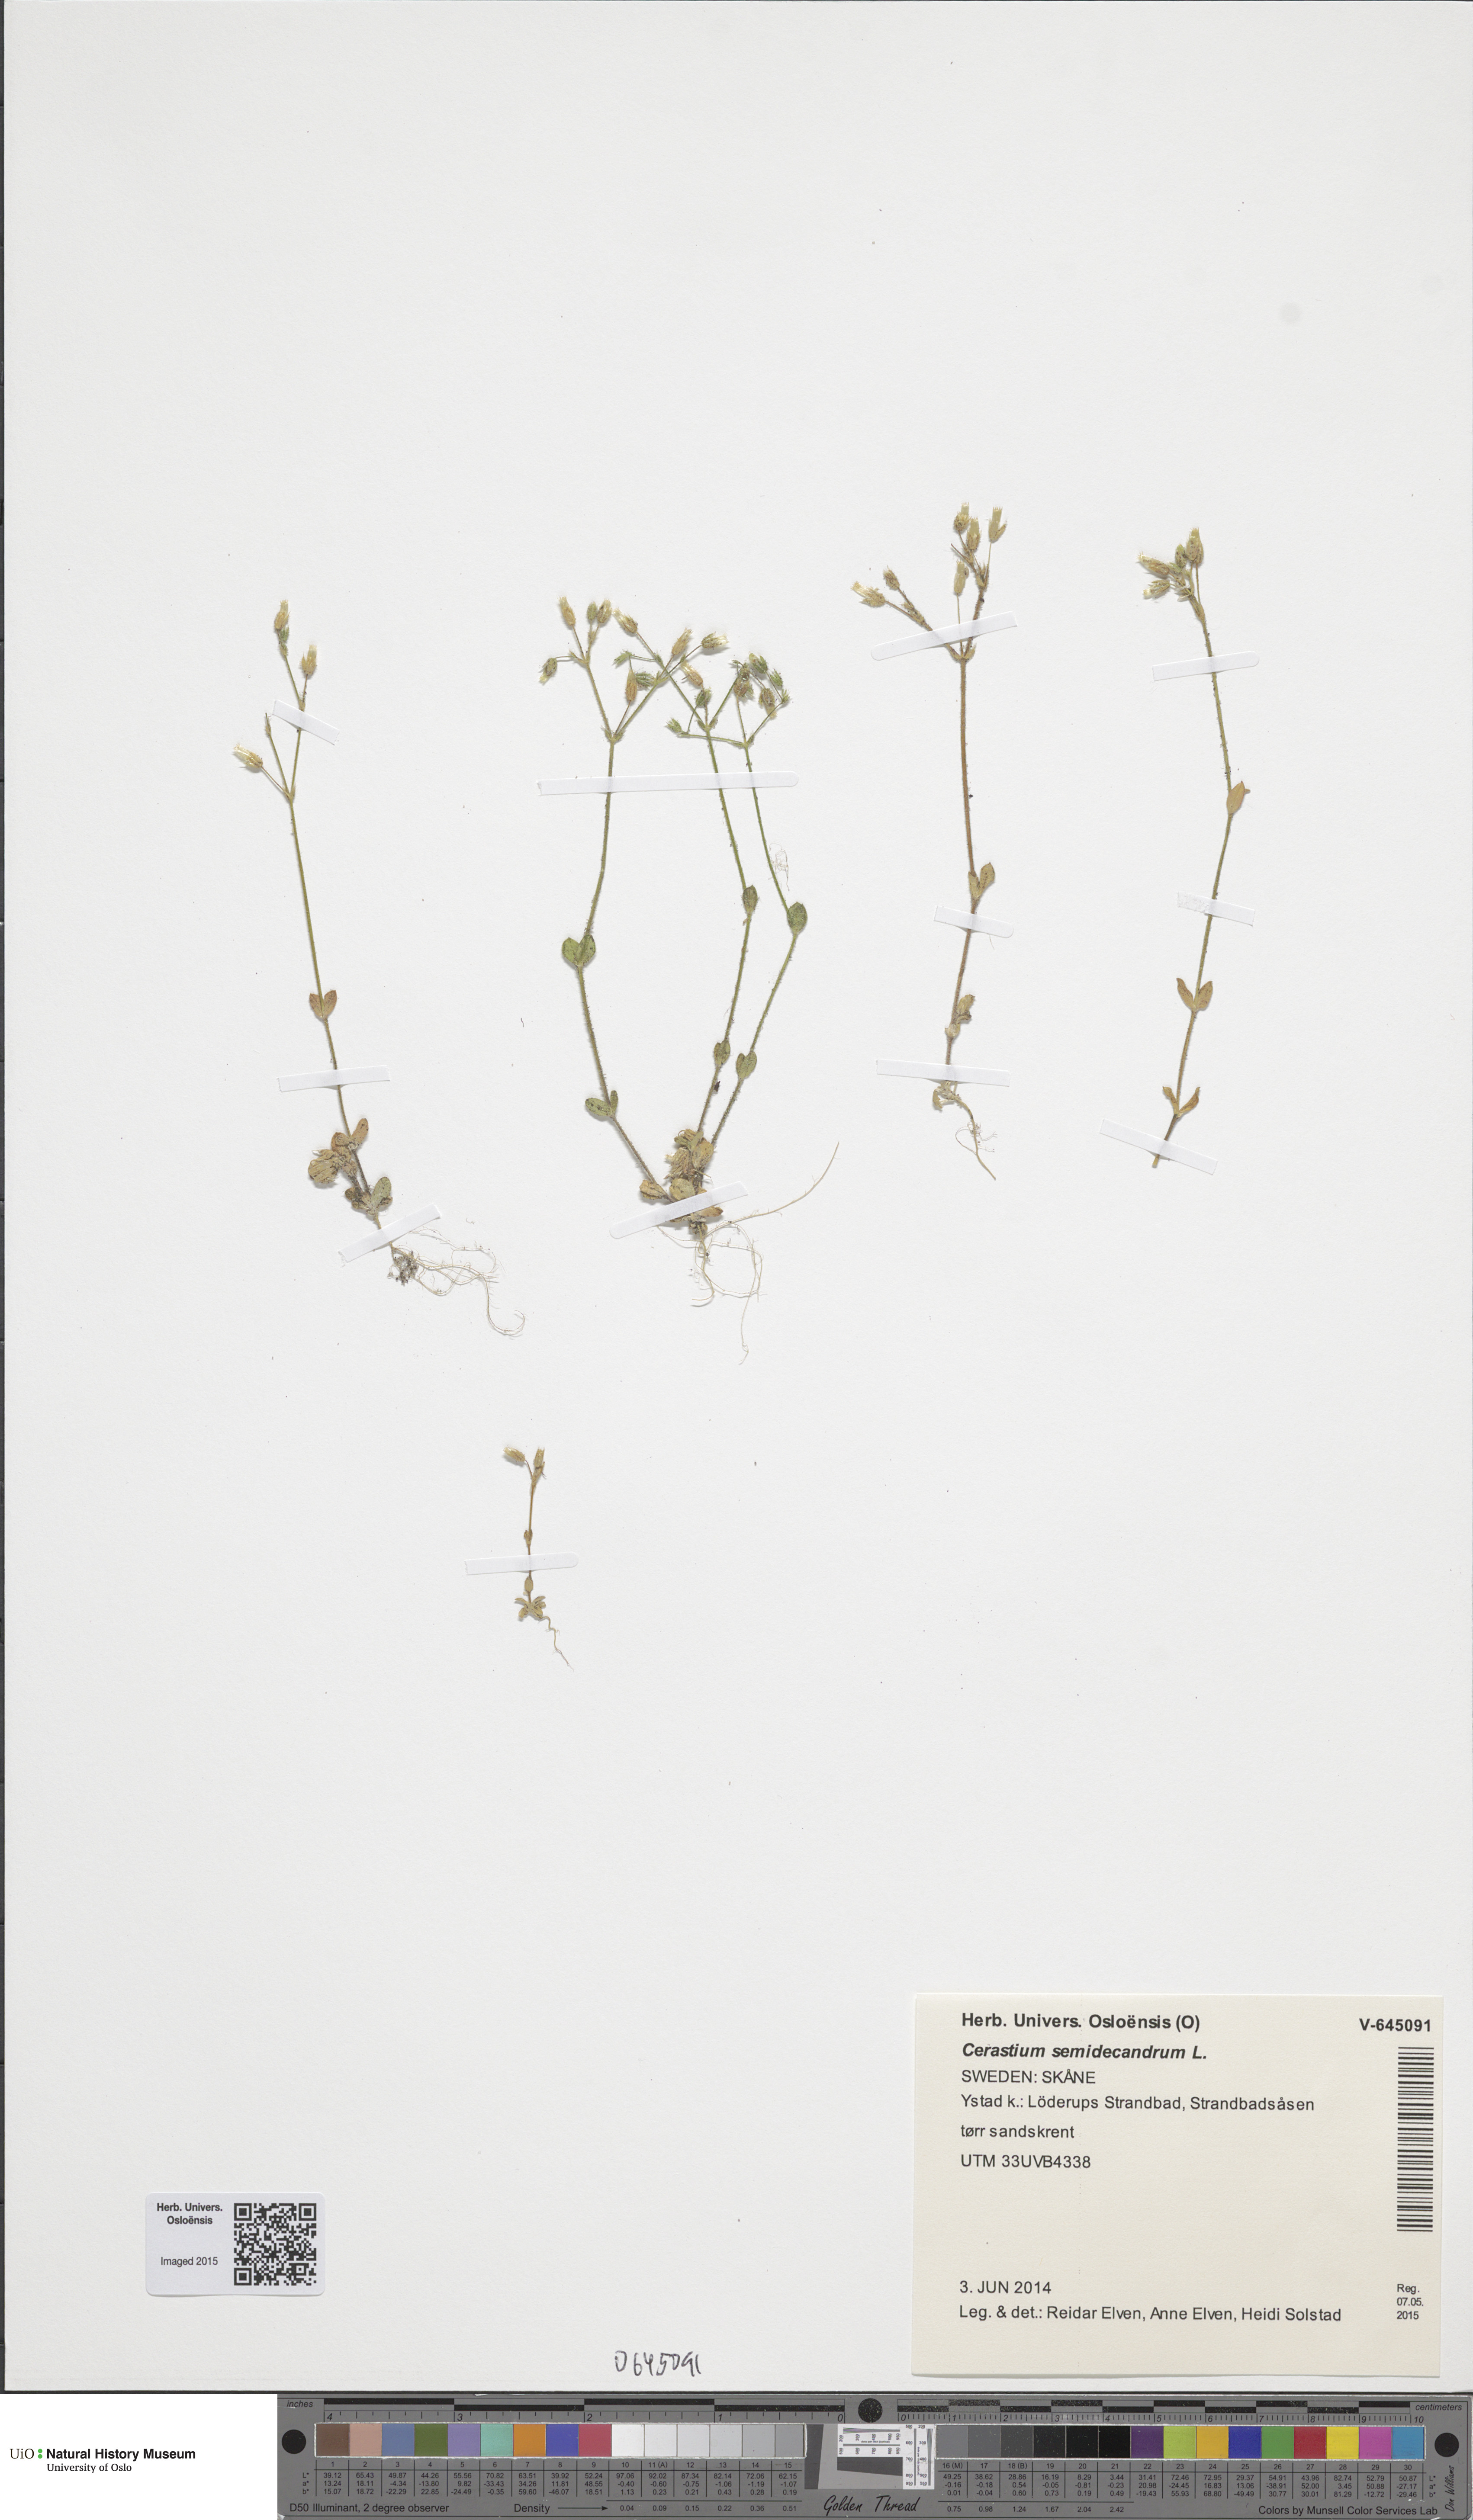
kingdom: Plantae
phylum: Tracheophyta
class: Magnoliopsida
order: Caryophyllales
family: Caryophyllaceae
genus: Cerastium
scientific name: Cerastium semidecandrum
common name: Little mouse-ear
